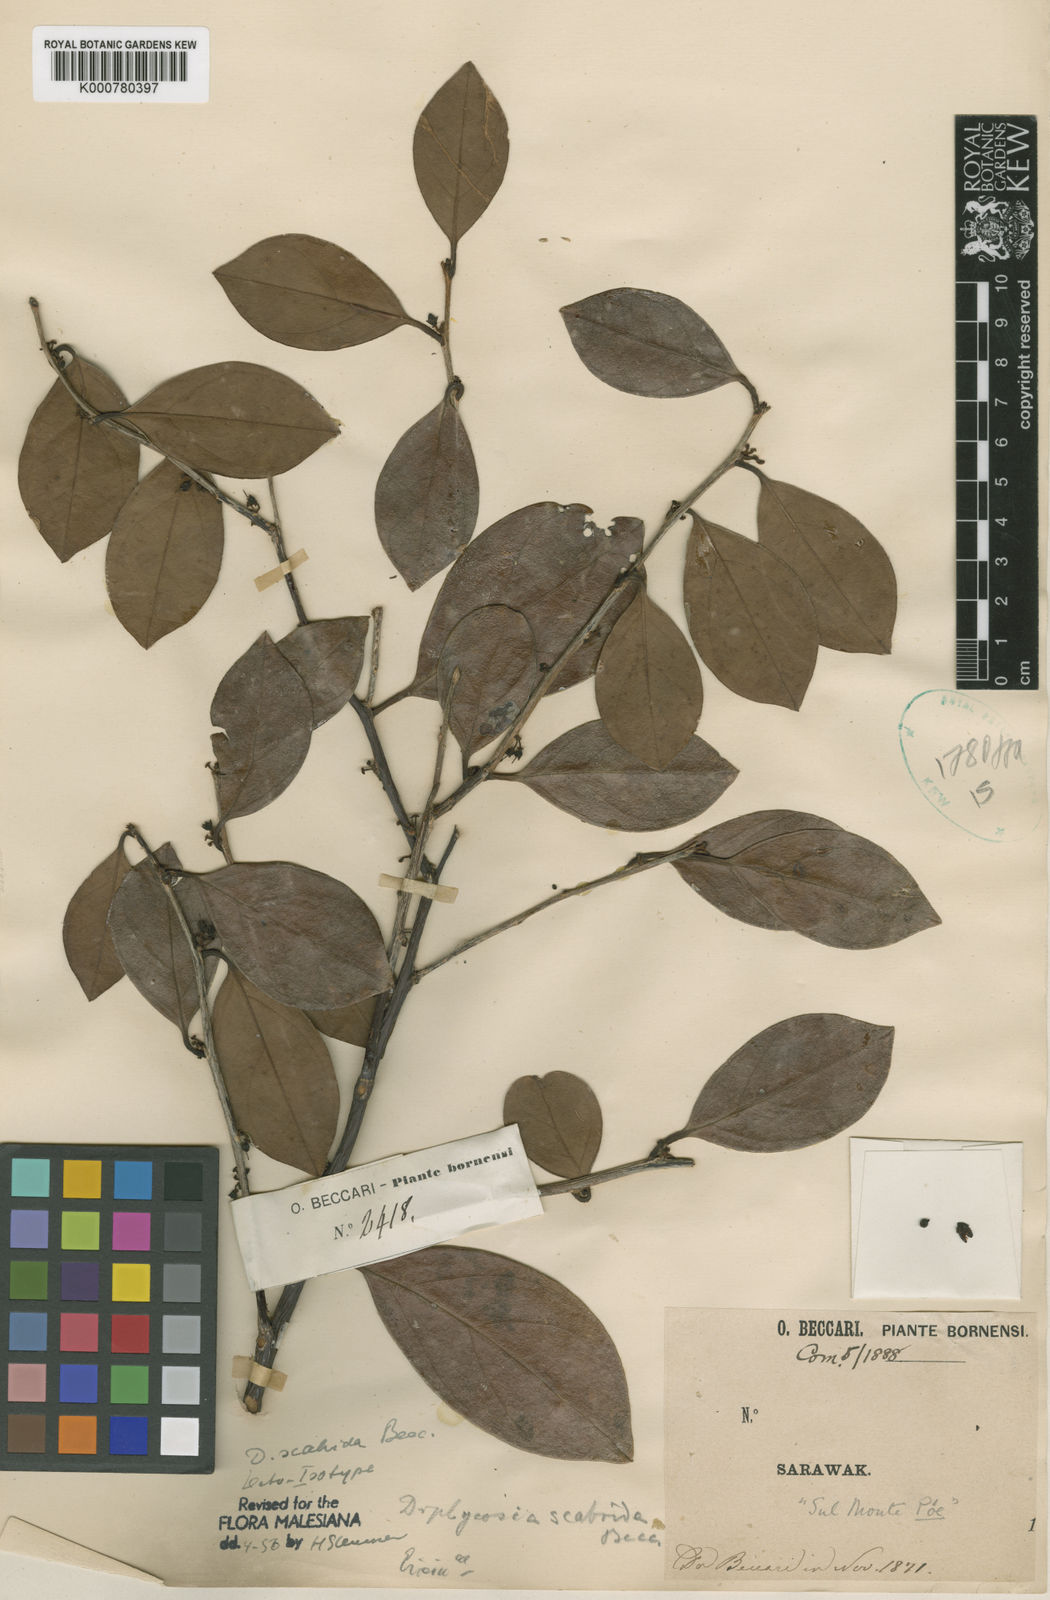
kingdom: Plantae
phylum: Tracheophyta
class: Magnoliopsida
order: Ericales
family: Ericaceae
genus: Gaultheria
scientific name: Gaultheria scabrida
